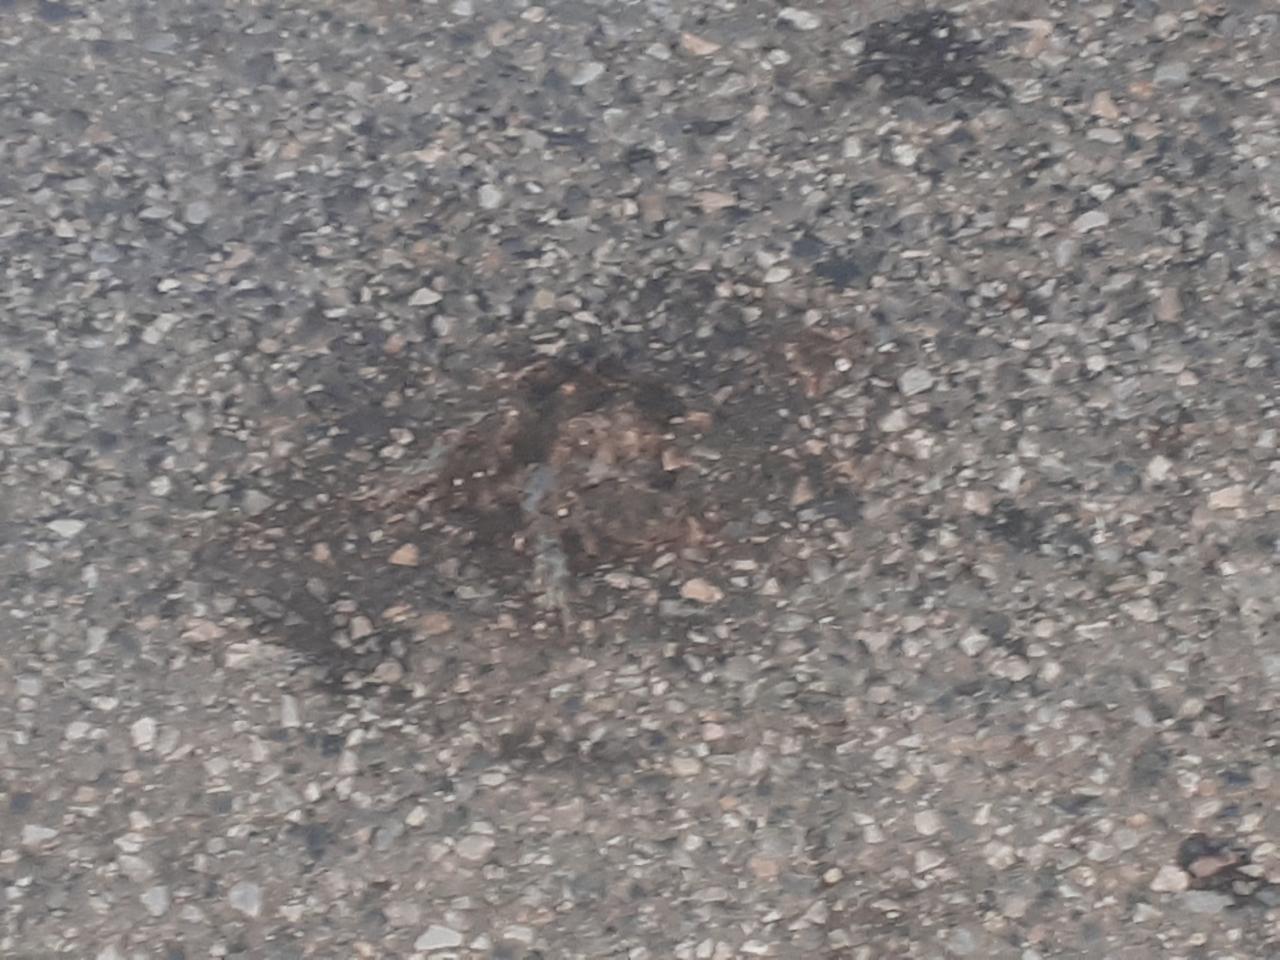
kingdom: Animalia
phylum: Chordata
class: Amphibia
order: Anura
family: Bufonidae
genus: Bufotes
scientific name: Bufotes viridis
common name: European green toad
